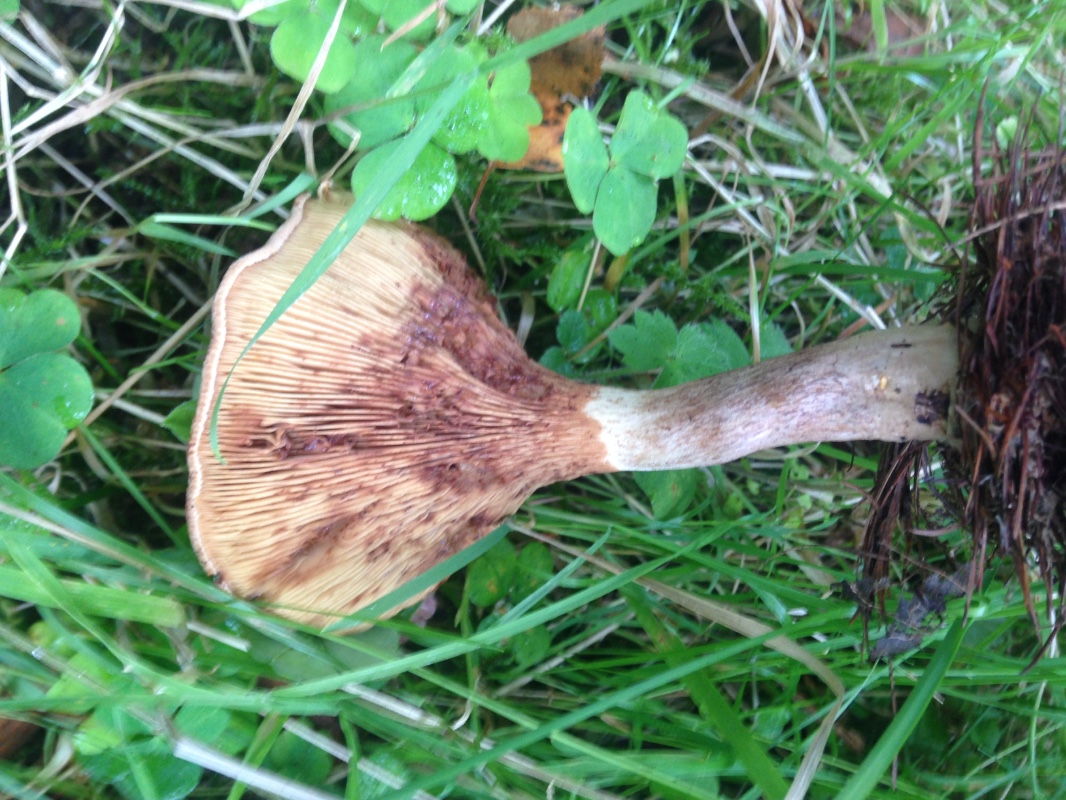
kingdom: Fungi
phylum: Basidiomycota
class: Agaricomycetes
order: Boletales
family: Paxillaceae
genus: Paxillus
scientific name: Paxillus involutus
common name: almindelig netbladhat
